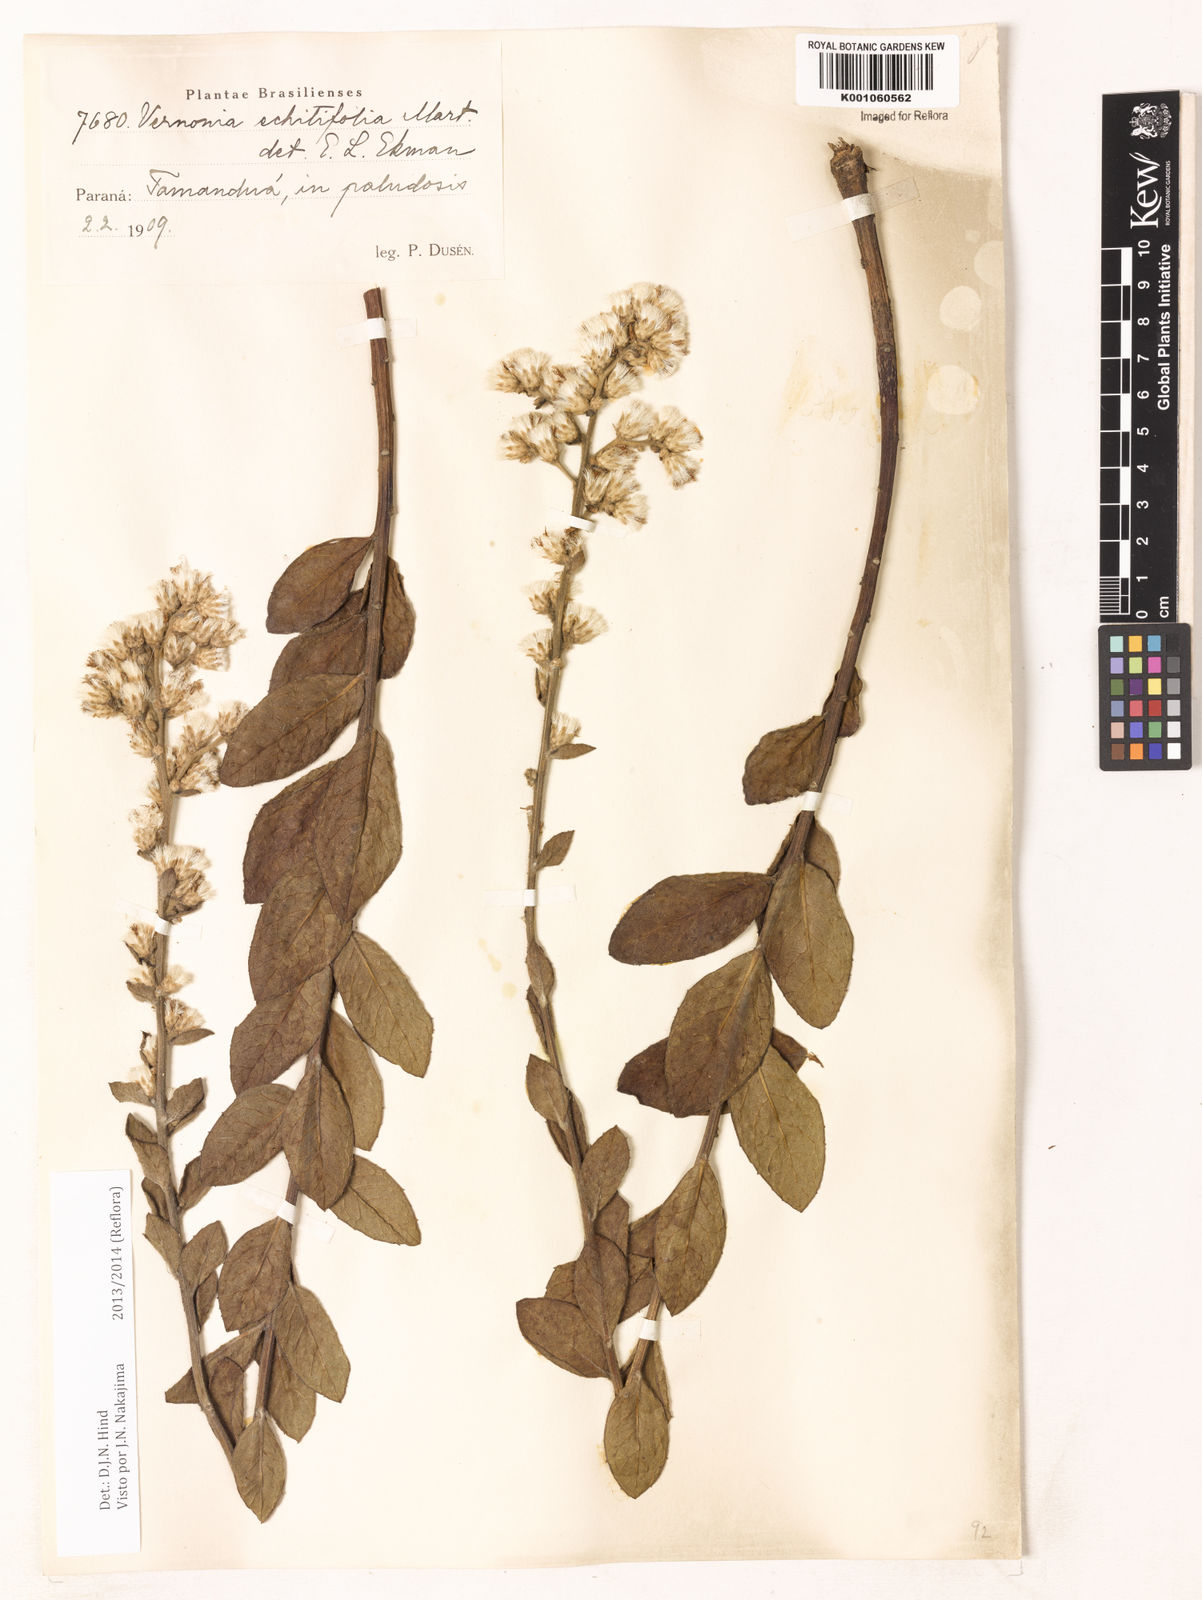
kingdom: Plantae
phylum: Tracheophyta
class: Magnoliopsida
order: Asterales
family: Asteraceae
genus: Acilepidopsis
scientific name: Acilepidopsis echitifolia
